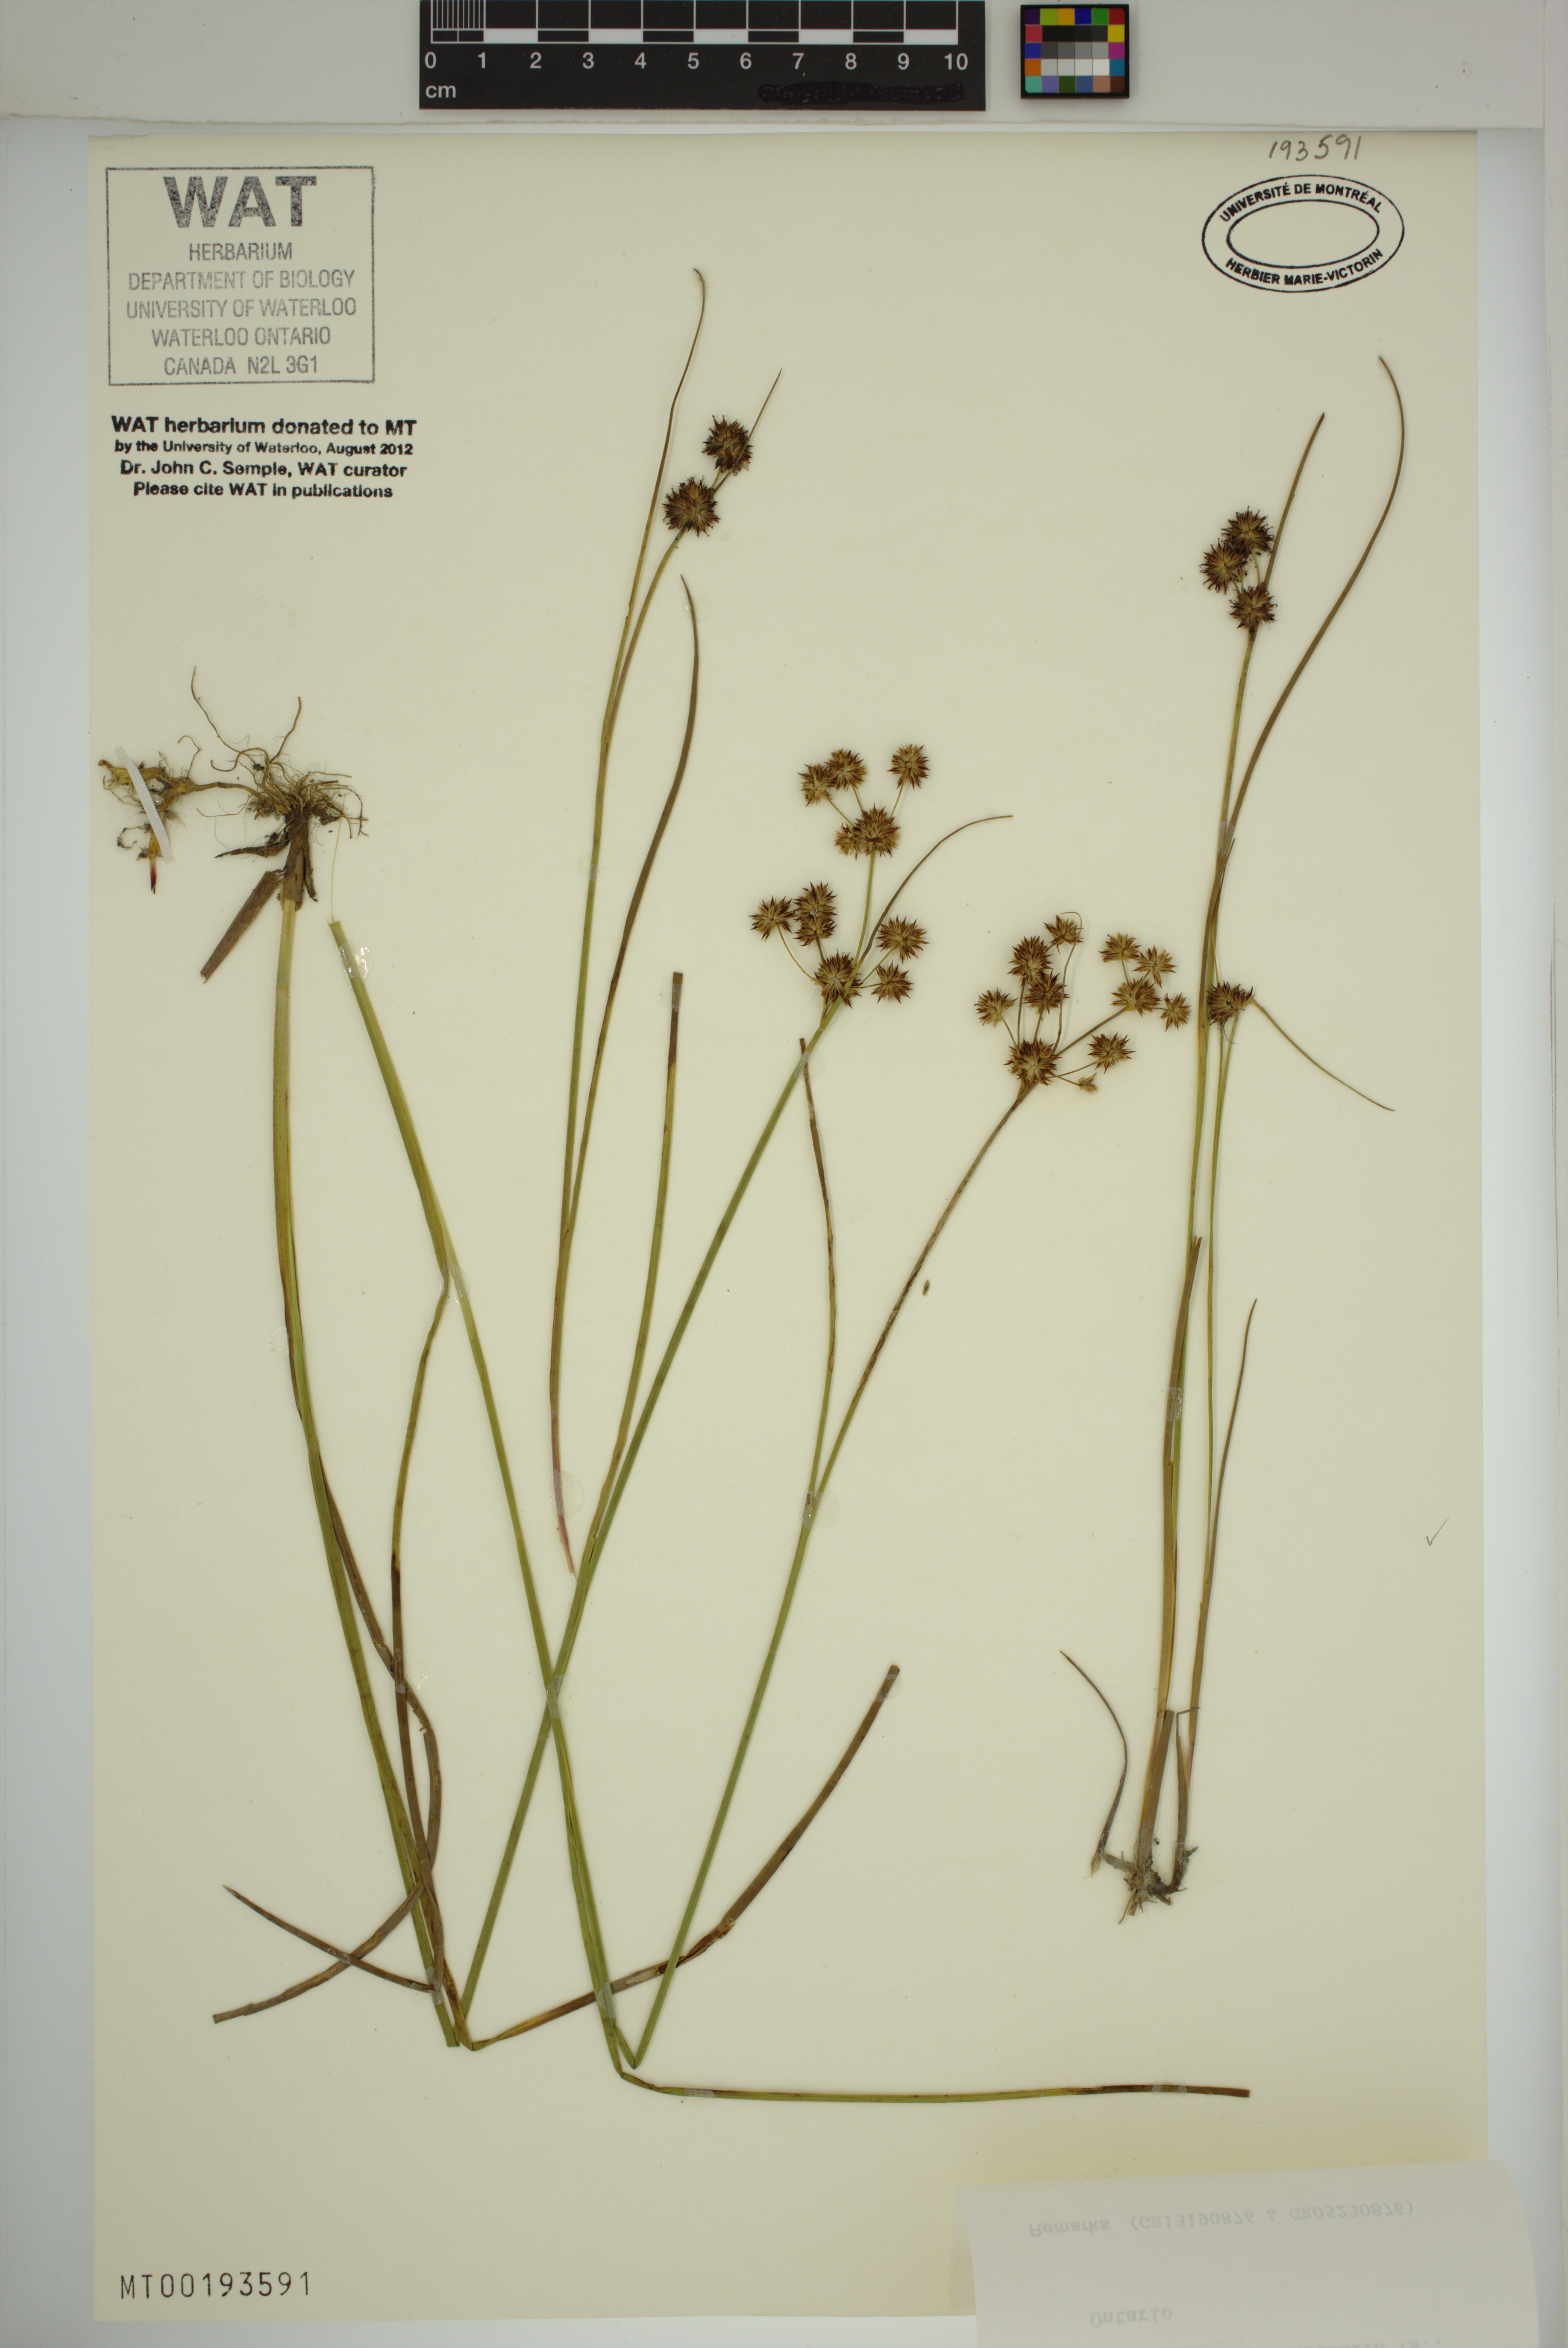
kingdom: Plantae
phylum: Tracheophyta
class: Liliopsida
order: Poales
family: Juncaceae
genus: Juncus
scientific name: Juncus nodosus
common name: Knotted rush
